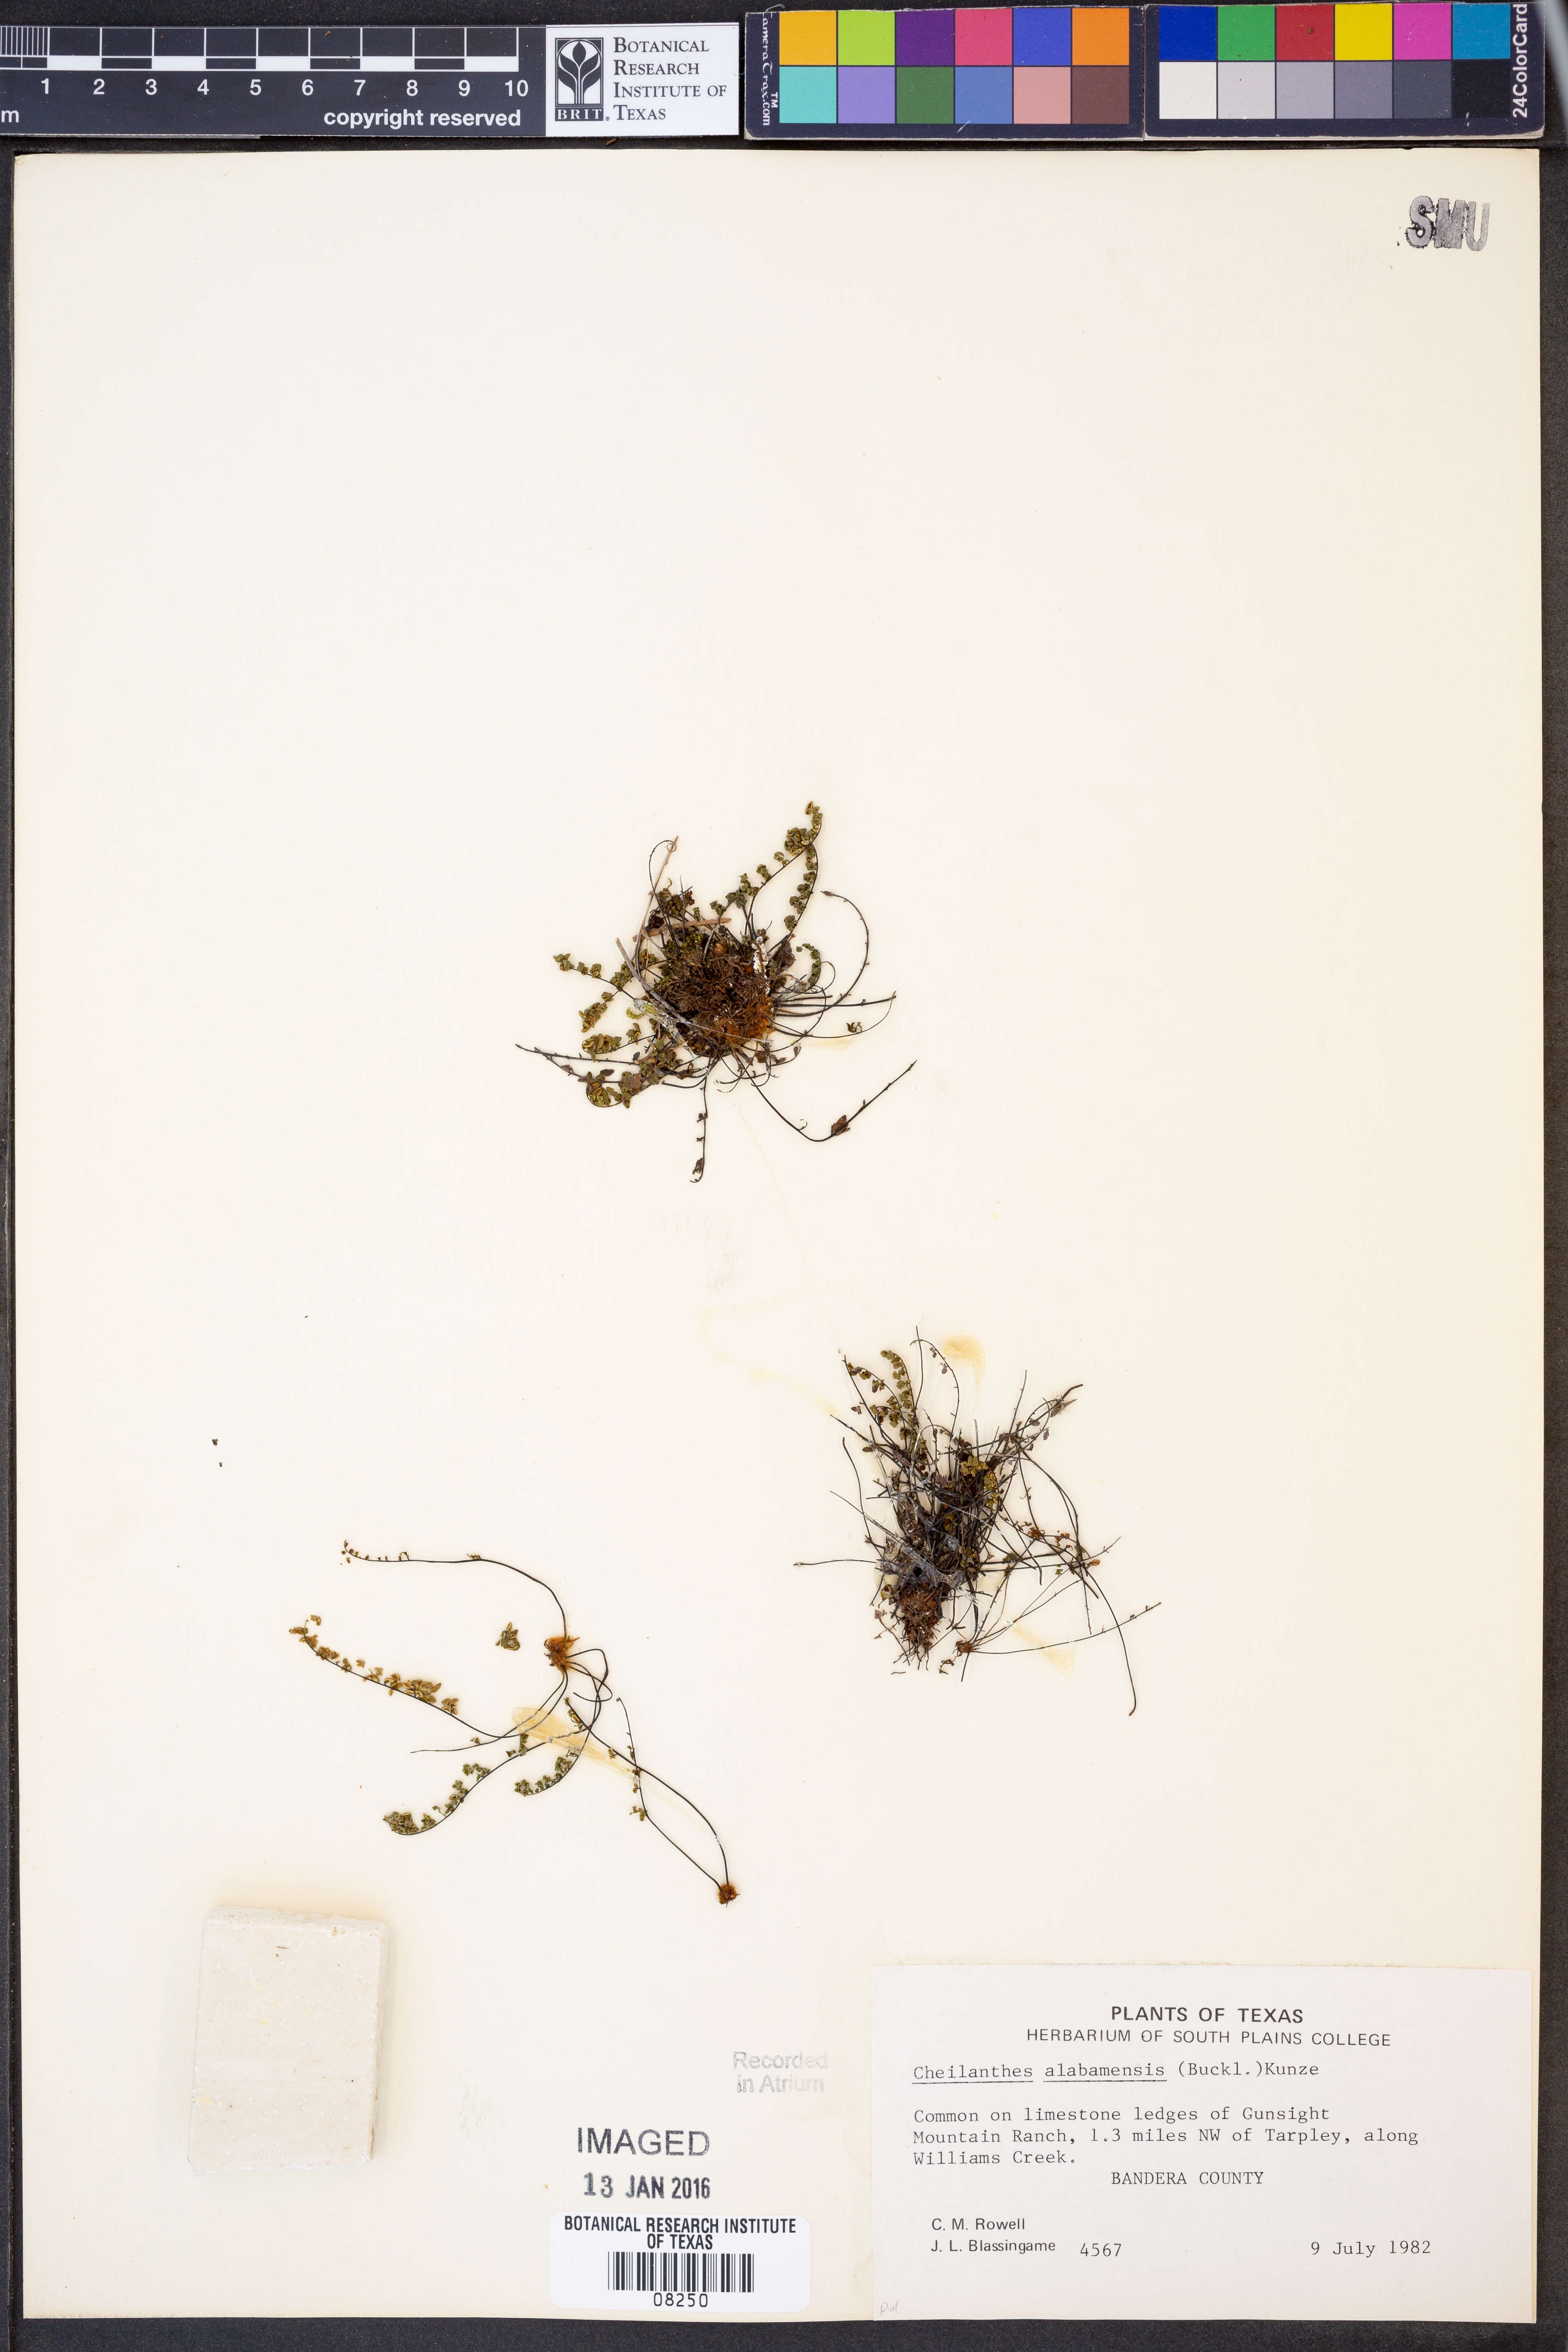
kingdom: Plantae
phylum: Tracheophyta
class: Polypodiopsida
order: Polypodiales
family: Pteridaceae
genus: Myriopteris
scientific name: Myriopteris alabamensis
